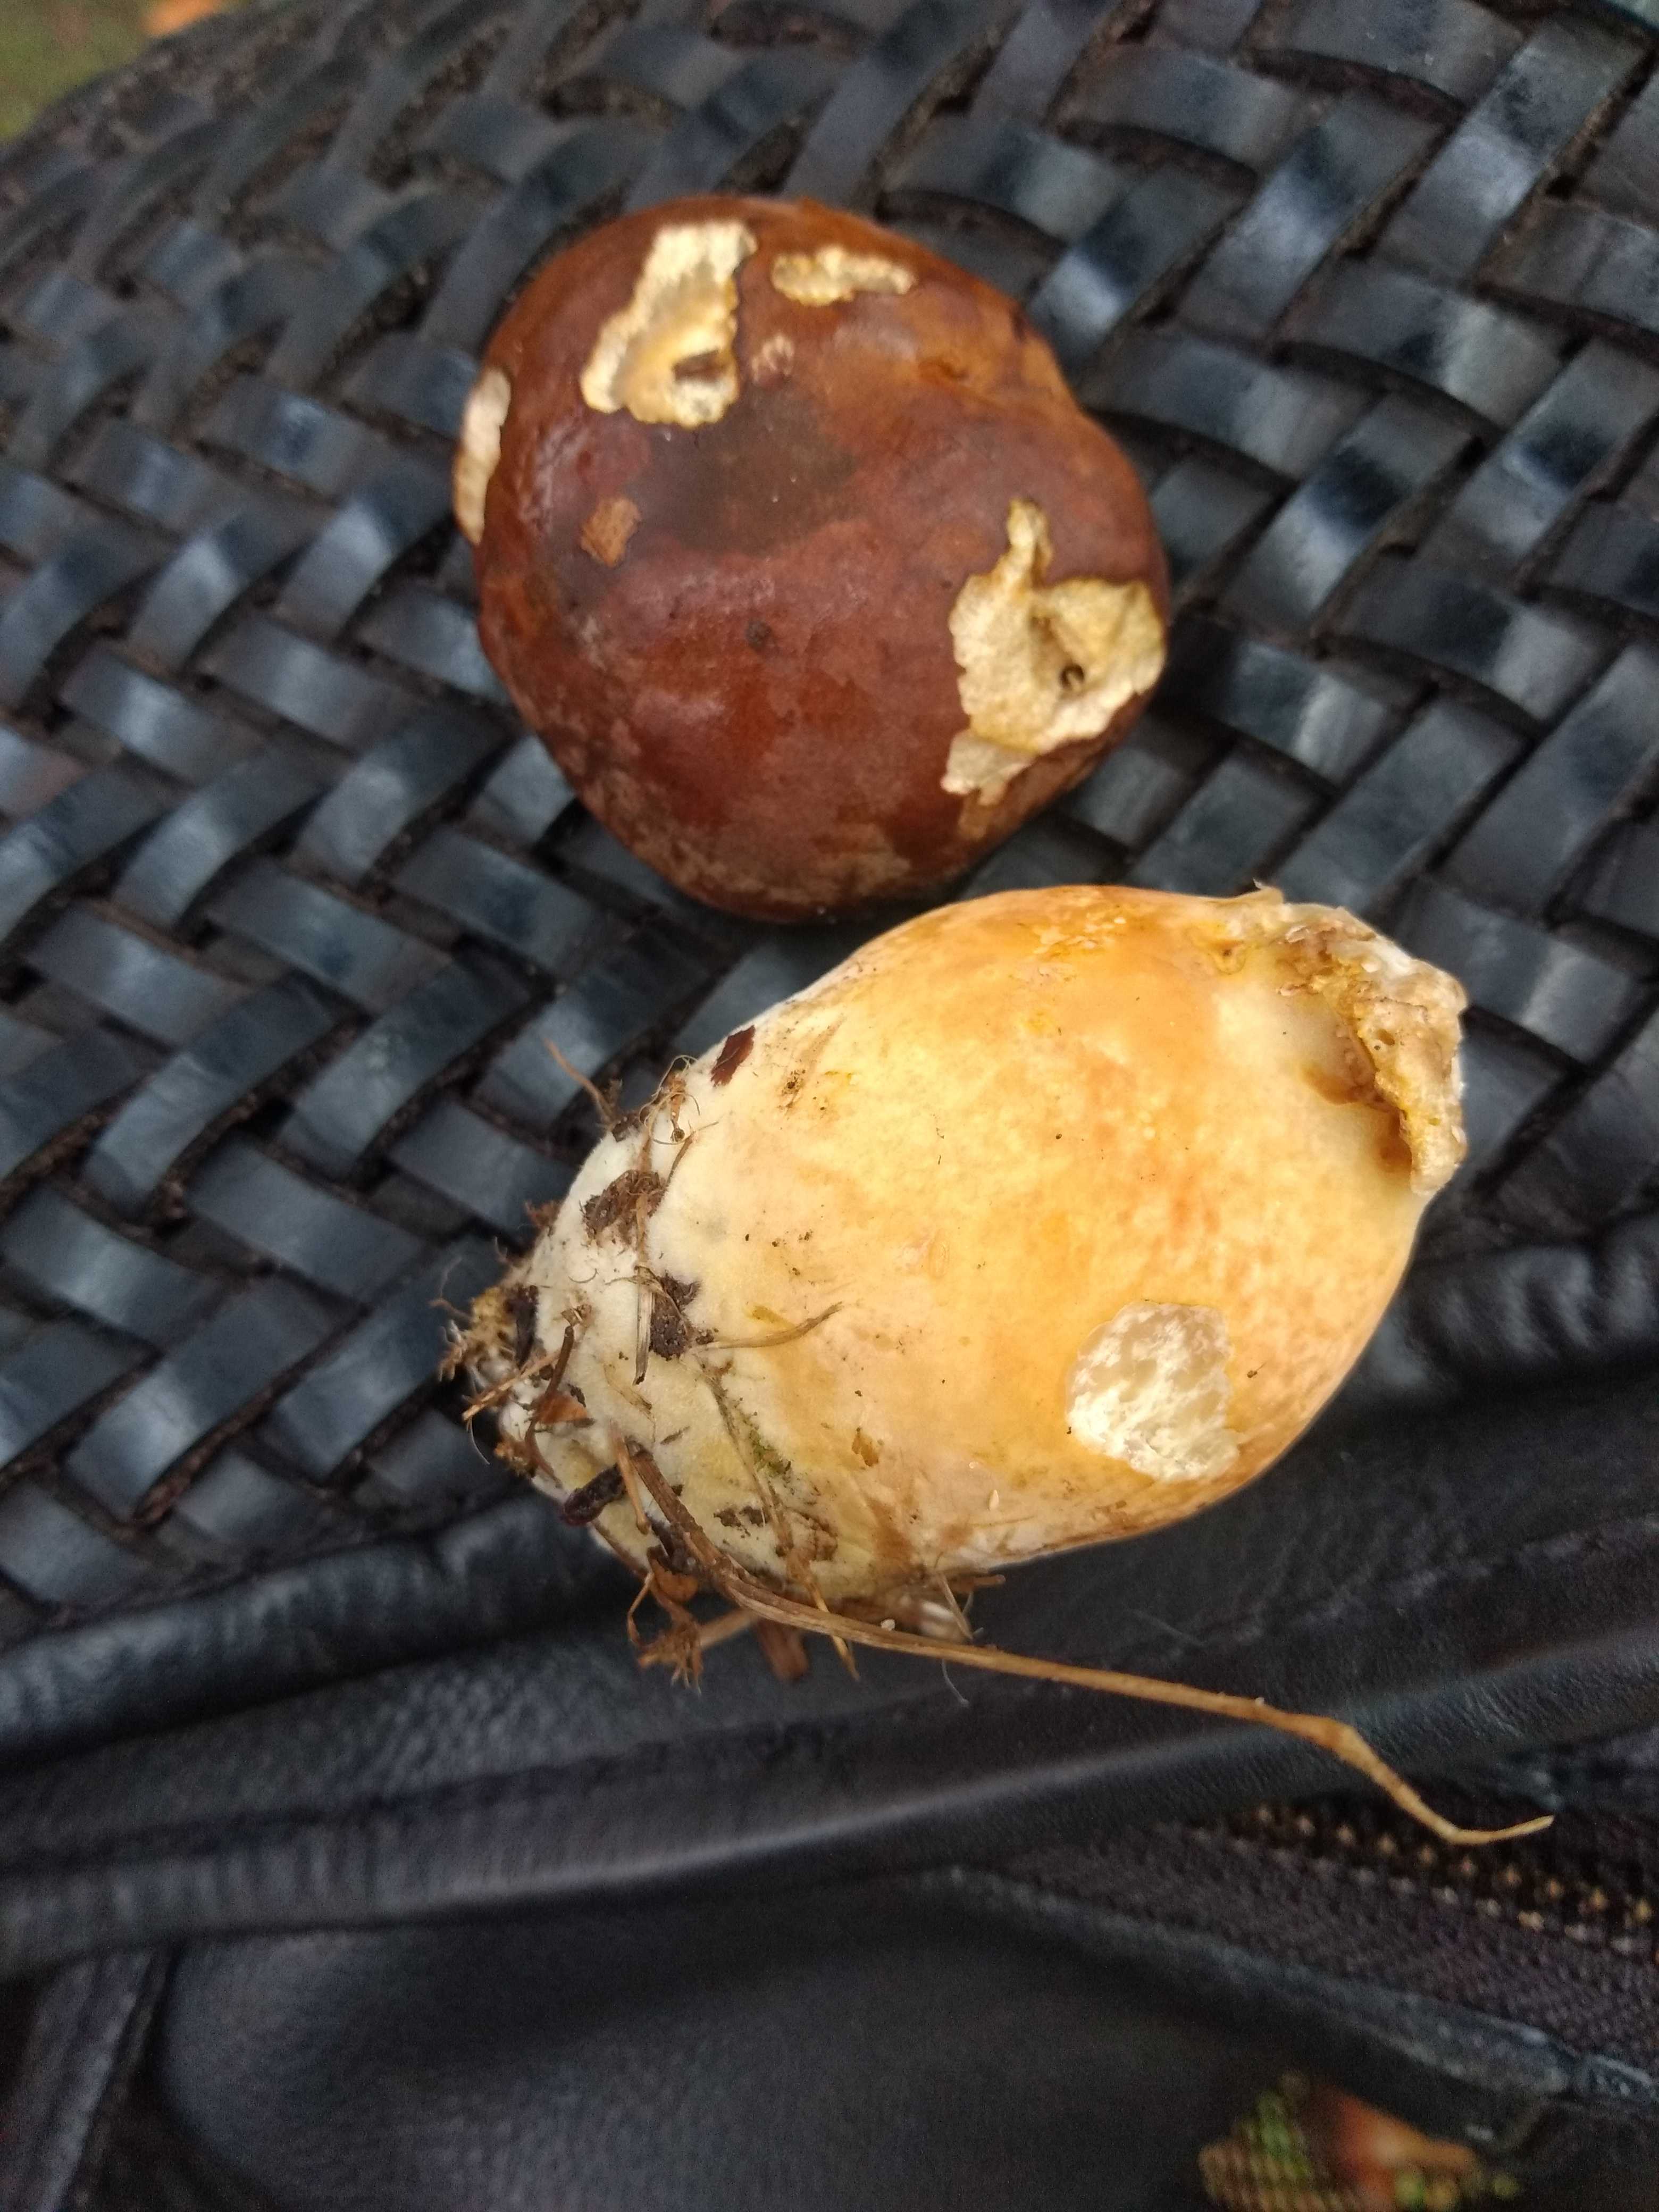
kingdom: Fungi
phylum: Basidiomycota
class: Agaricomycetes
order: Boletales
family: Boletaceae
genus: Imleria
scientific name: Imleria badia
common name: brunstokket rørhat
